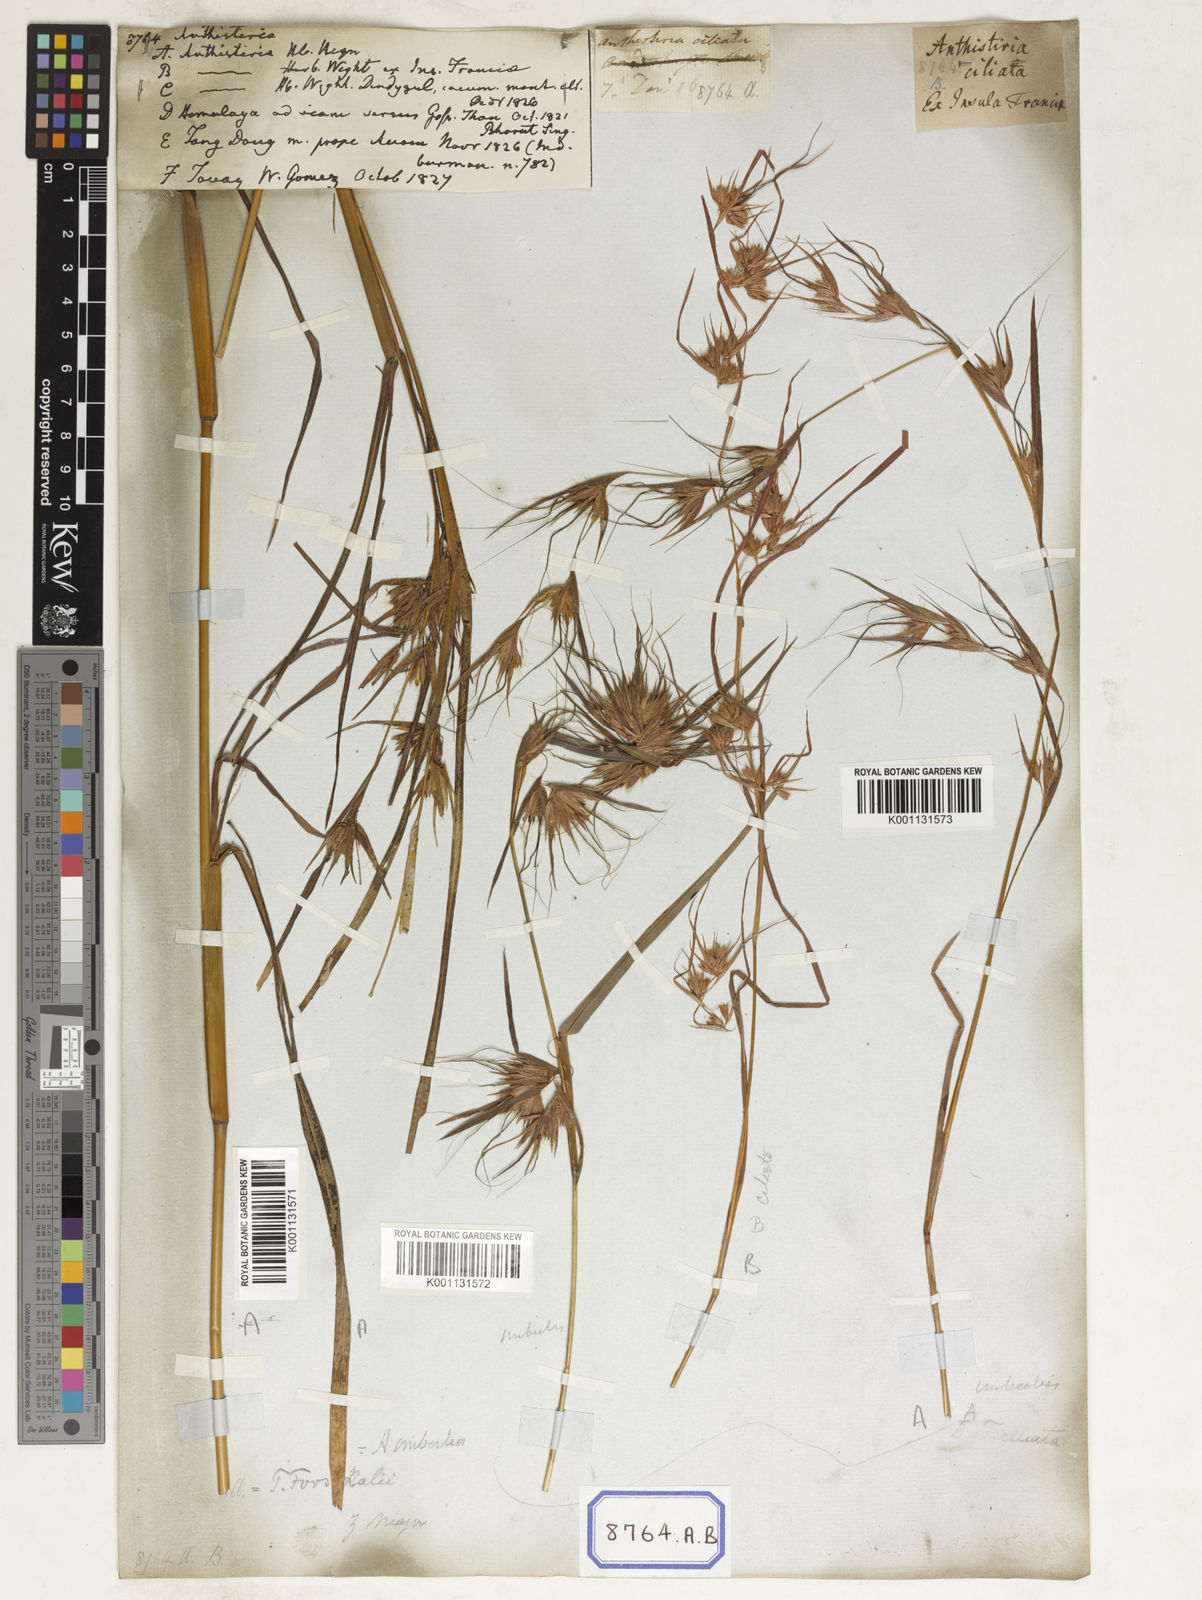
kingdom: Plantae
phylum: Tracheophyta
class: Liliopsida
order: Poales
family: Poaceae
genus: Themeda
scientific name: Themeda
